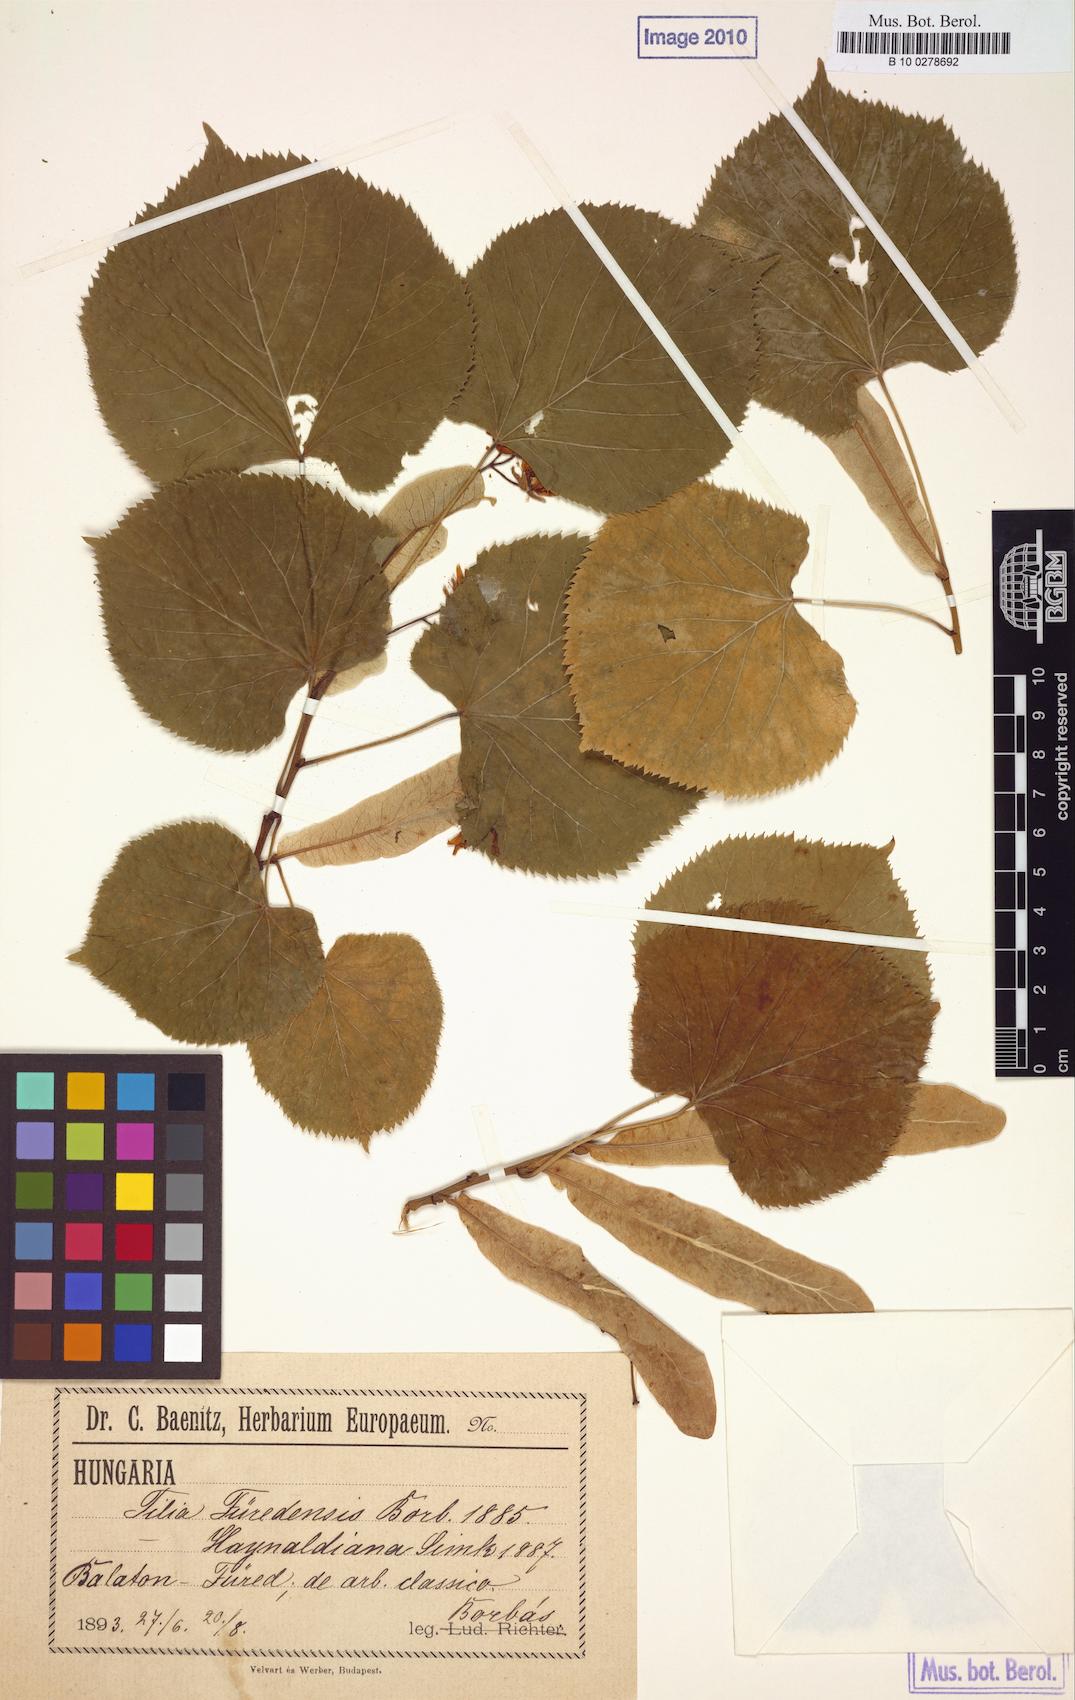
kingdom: Plantae
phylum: Tracheophyta
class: Magnoliopsida
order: Malvales
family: Malvaceae
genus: Tilia
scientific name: Tilia furedensis
